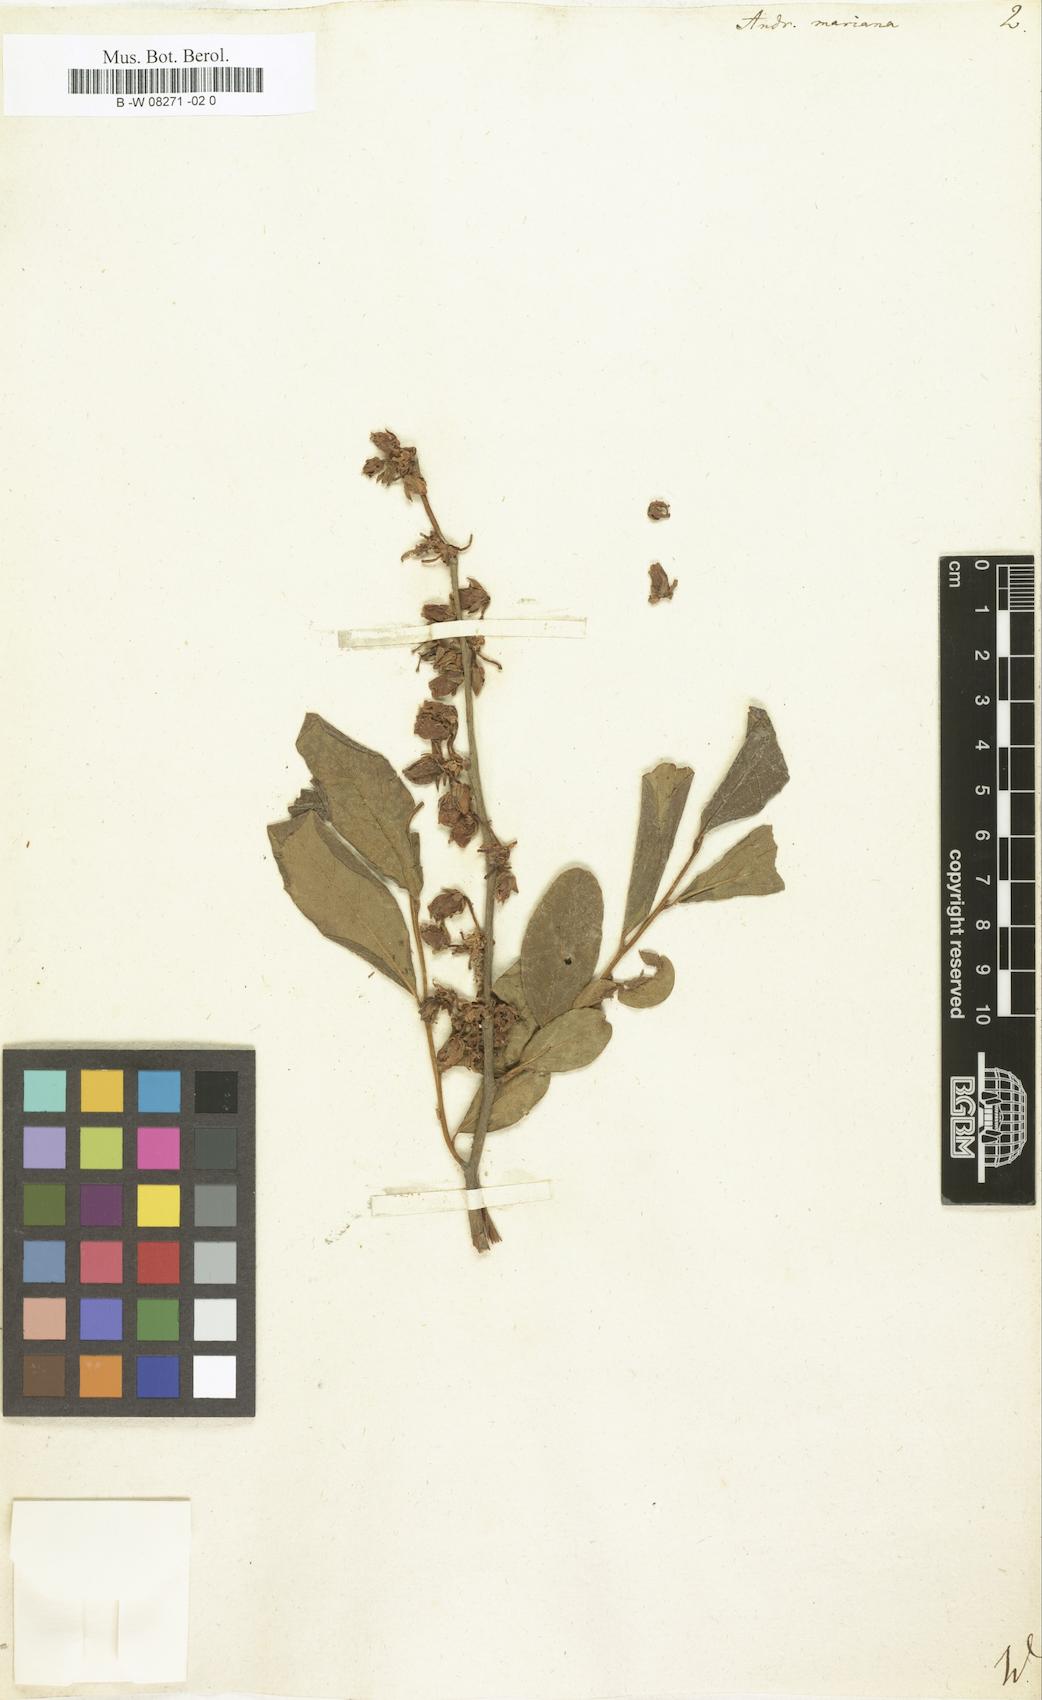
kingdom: Plantae
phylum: Tracheophyta
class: Magnoliopsida
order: Ericales
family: Ericaceae
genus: Lyonia
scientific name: Lyonia mariana
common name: Staggerbush
